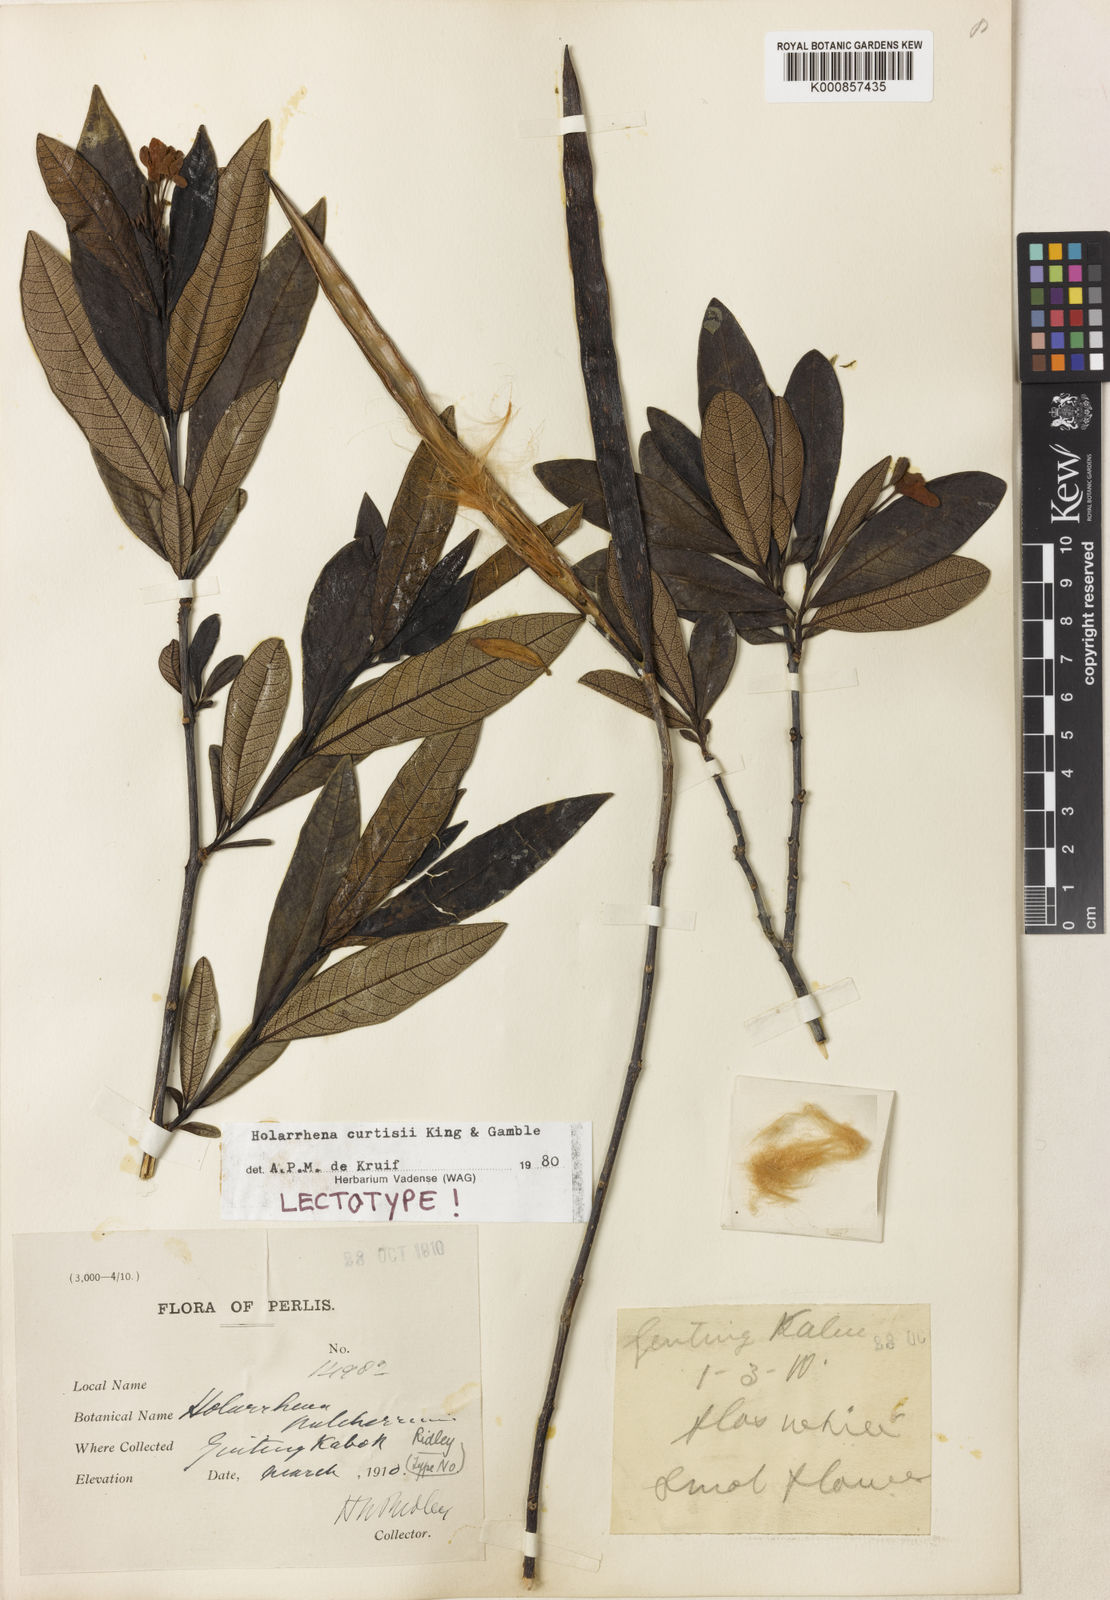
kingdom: Plantae
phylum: Tracheophyta
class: Magnoliopsida
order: Gentianales
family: Apocynaceae
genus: Holarrhena
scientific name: Holarrhena pubescens
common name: Bitter oleander
